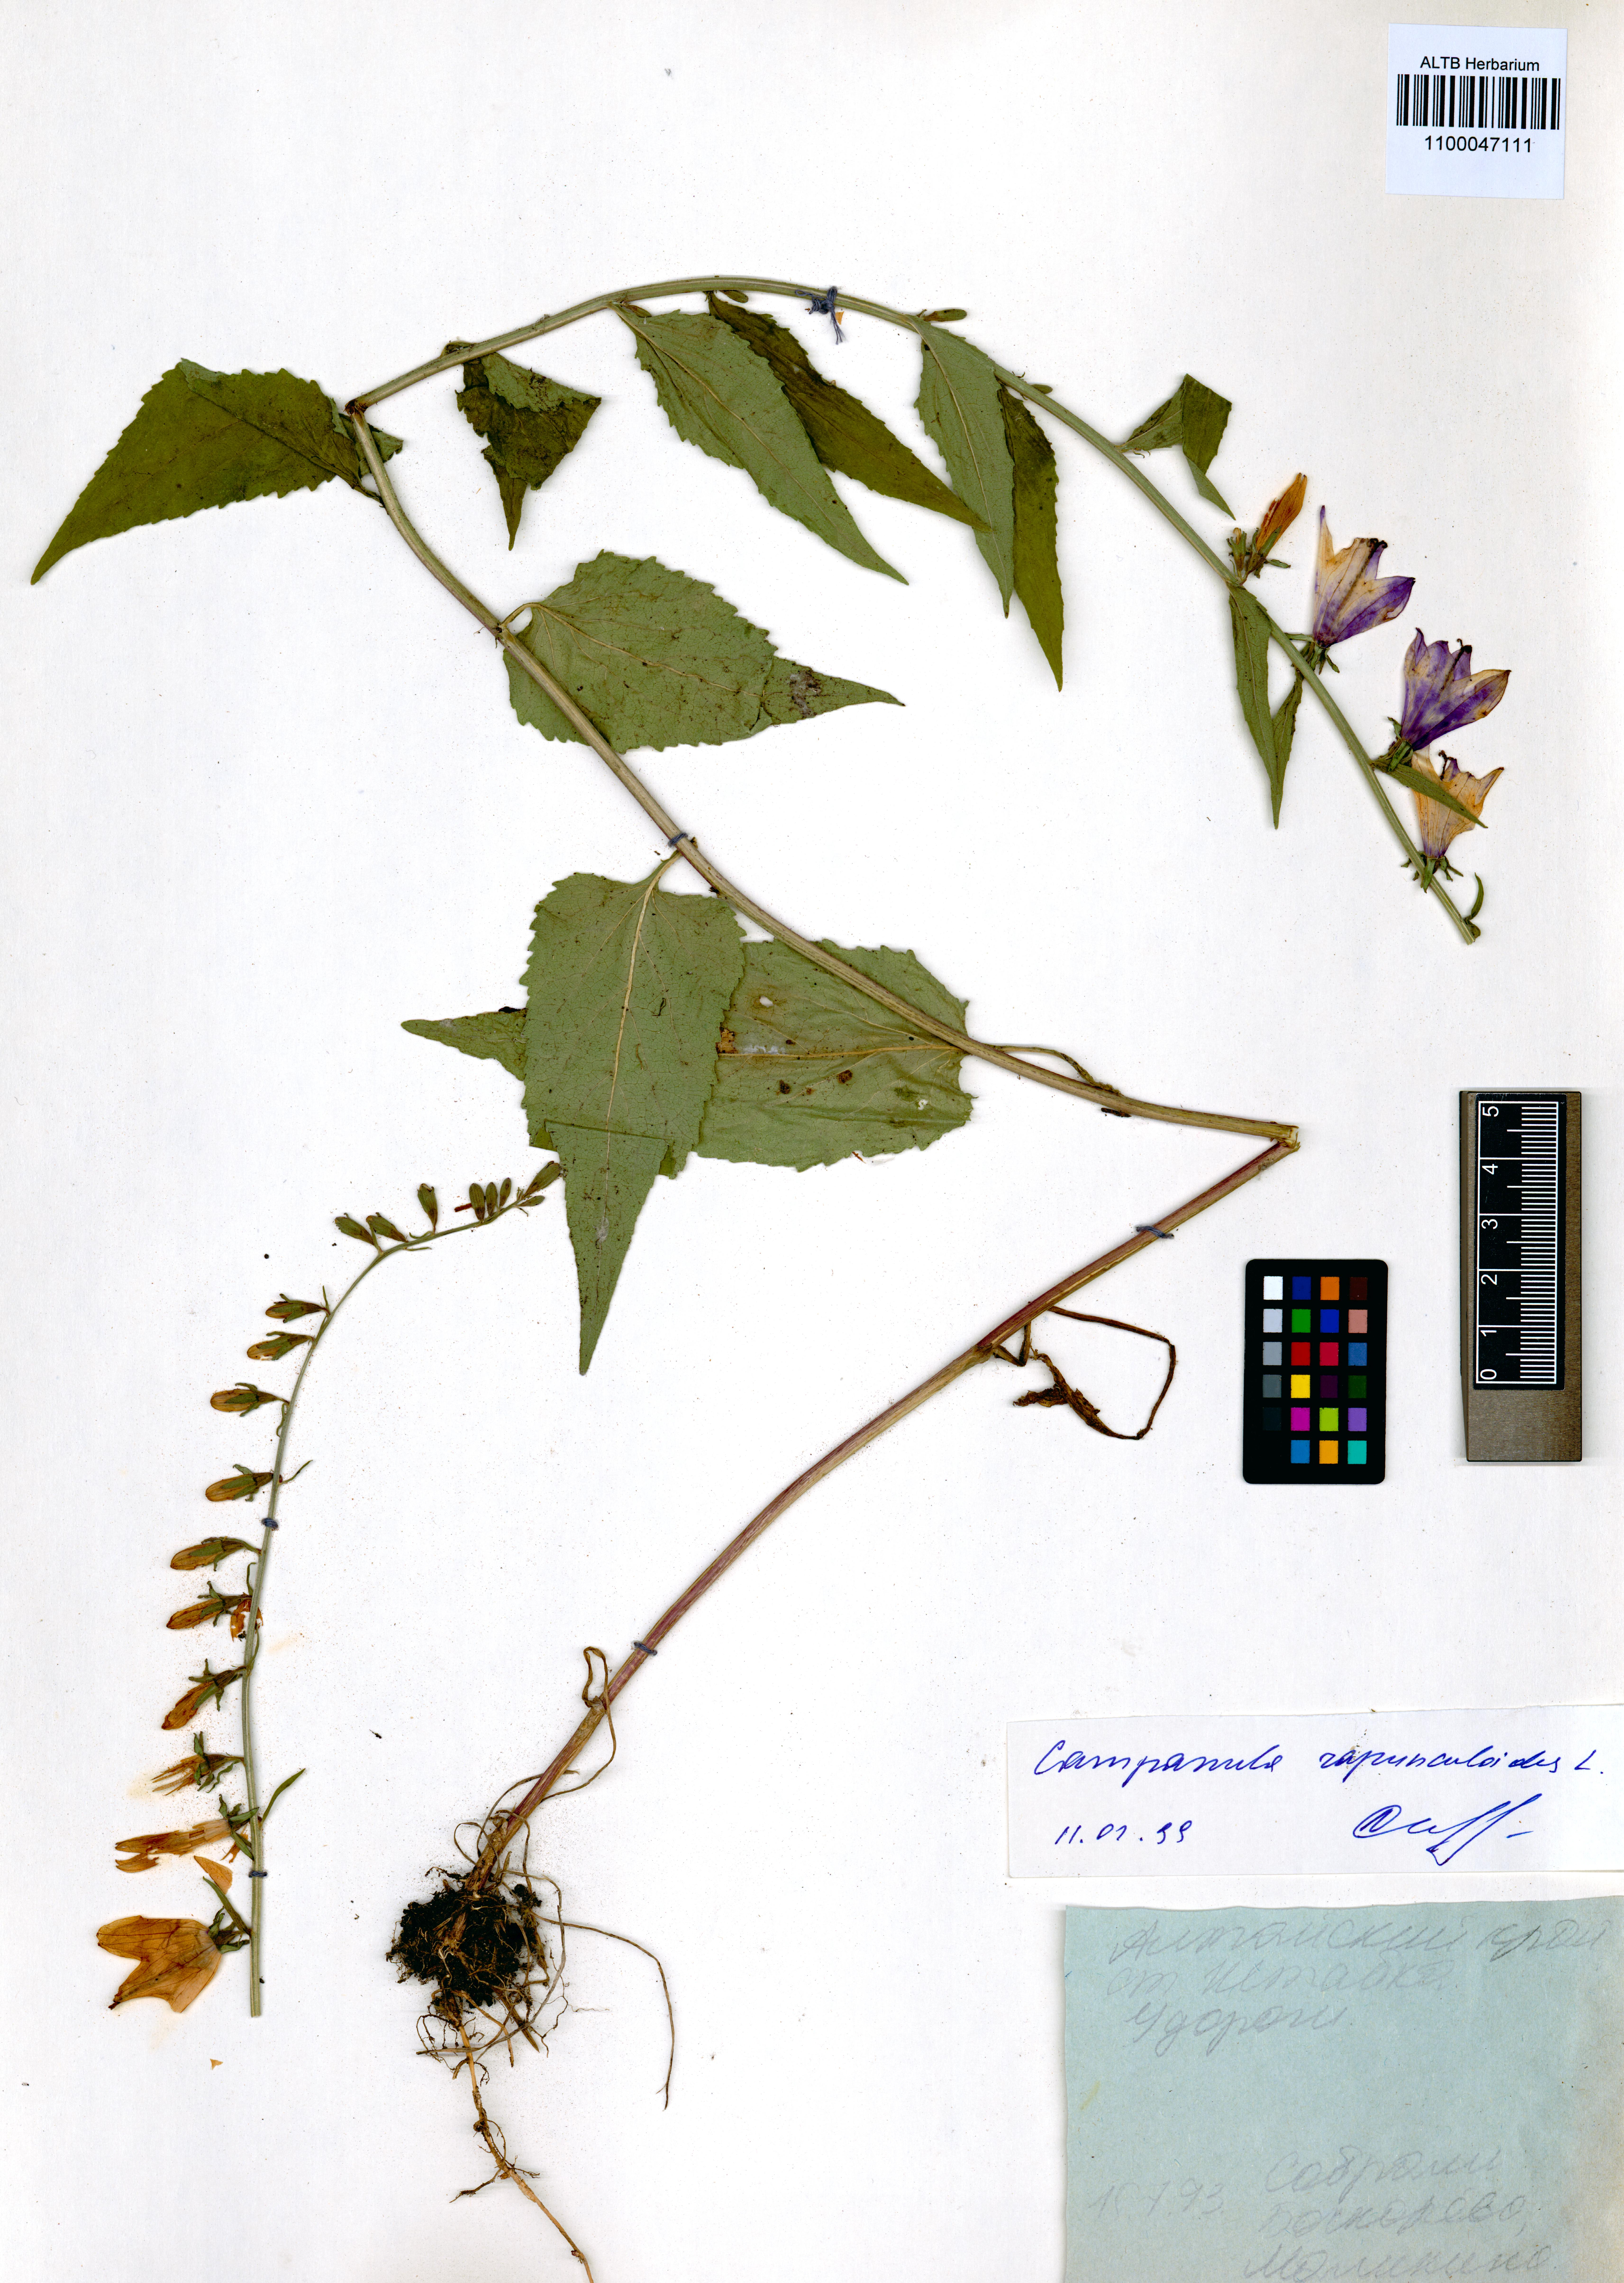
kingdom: Plantae
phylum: Tracheophyta
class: Magnoliopsida
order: Asterales
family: Campanulaceae
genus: Campanula
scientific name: Campanula rapunculoides
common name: Creeping bellflower
